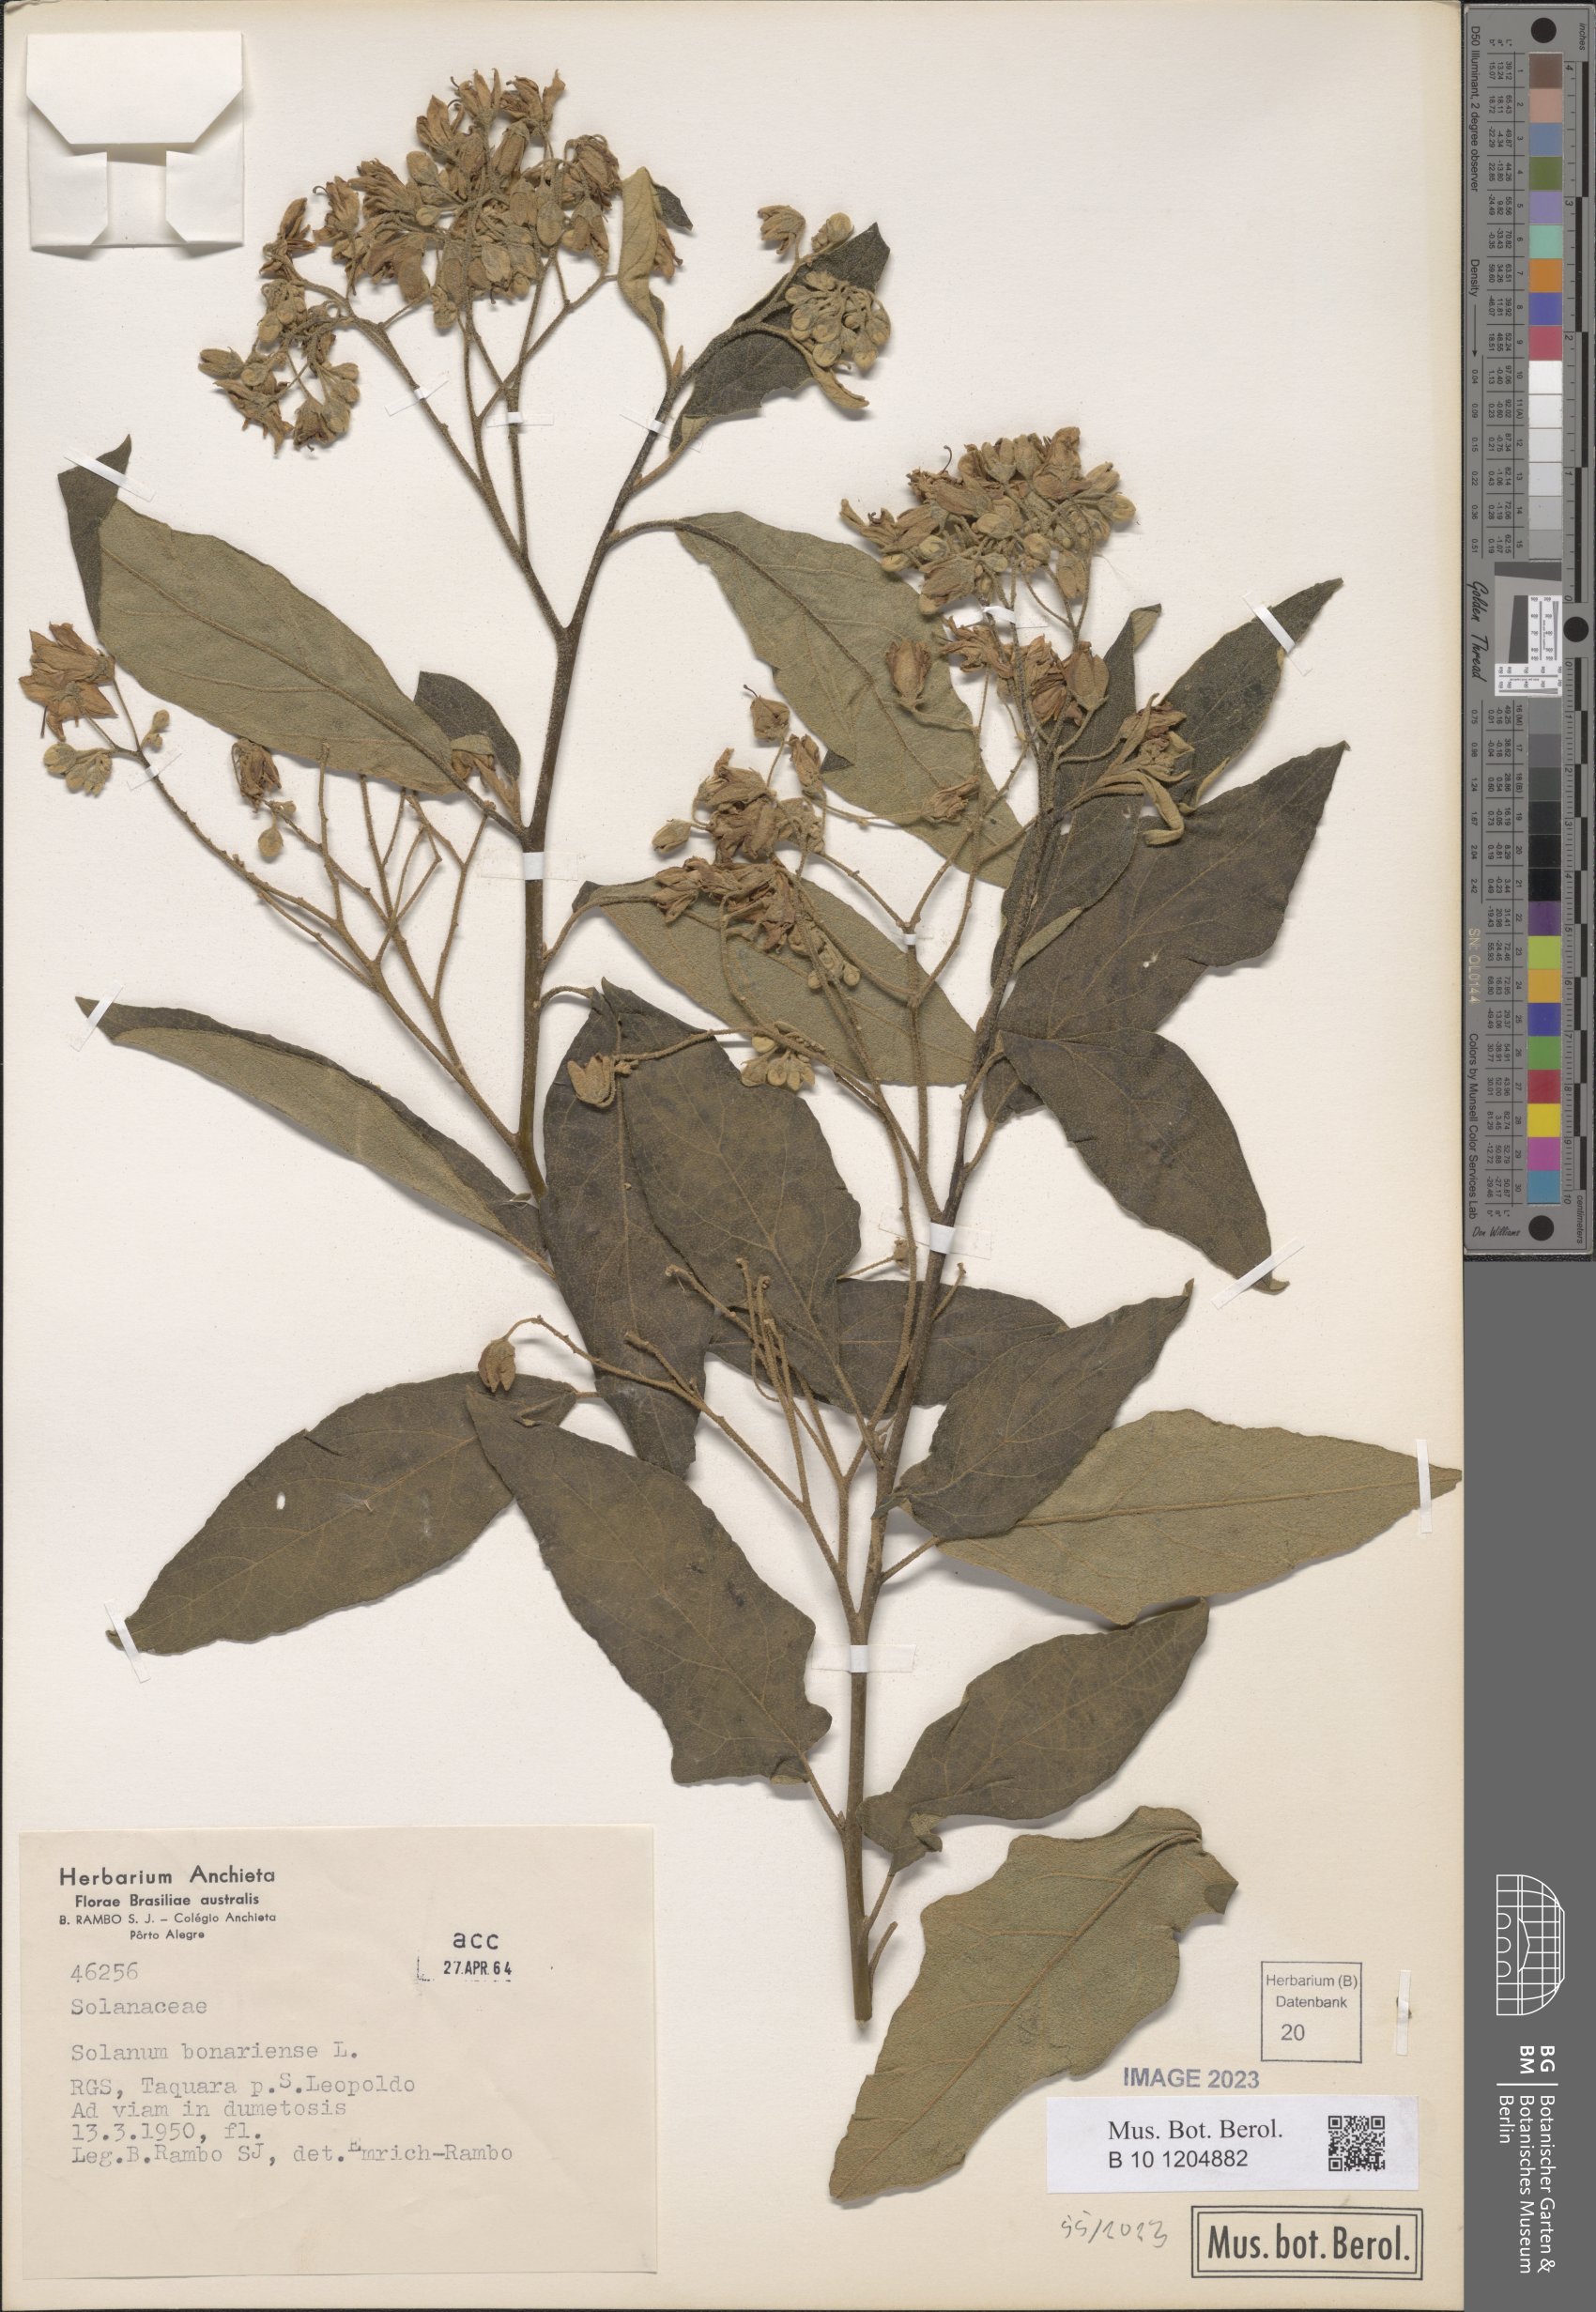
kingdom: Plantae
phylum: Tracheophyta
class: Magnoliopsida
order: Solanales
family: Solanaceae
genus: Solanum
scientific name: Solanum bonariense
